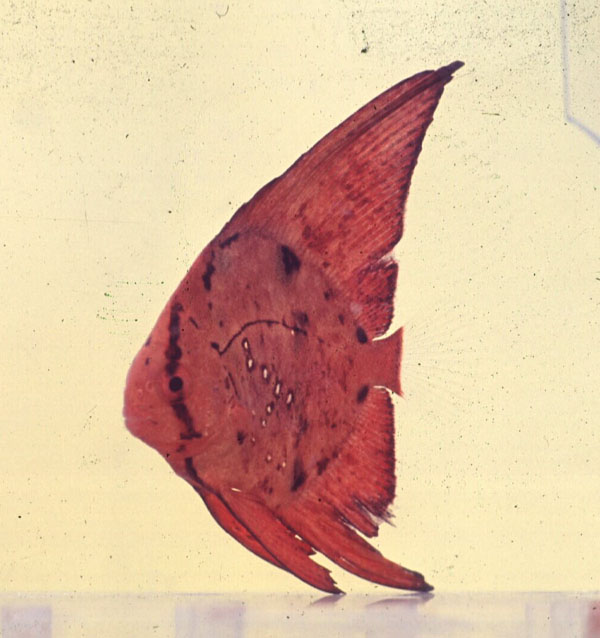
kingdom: Animalia
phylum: Chordata
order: Perciformes
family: Ephippidae
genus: Platax
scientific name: Platax pinnatus
